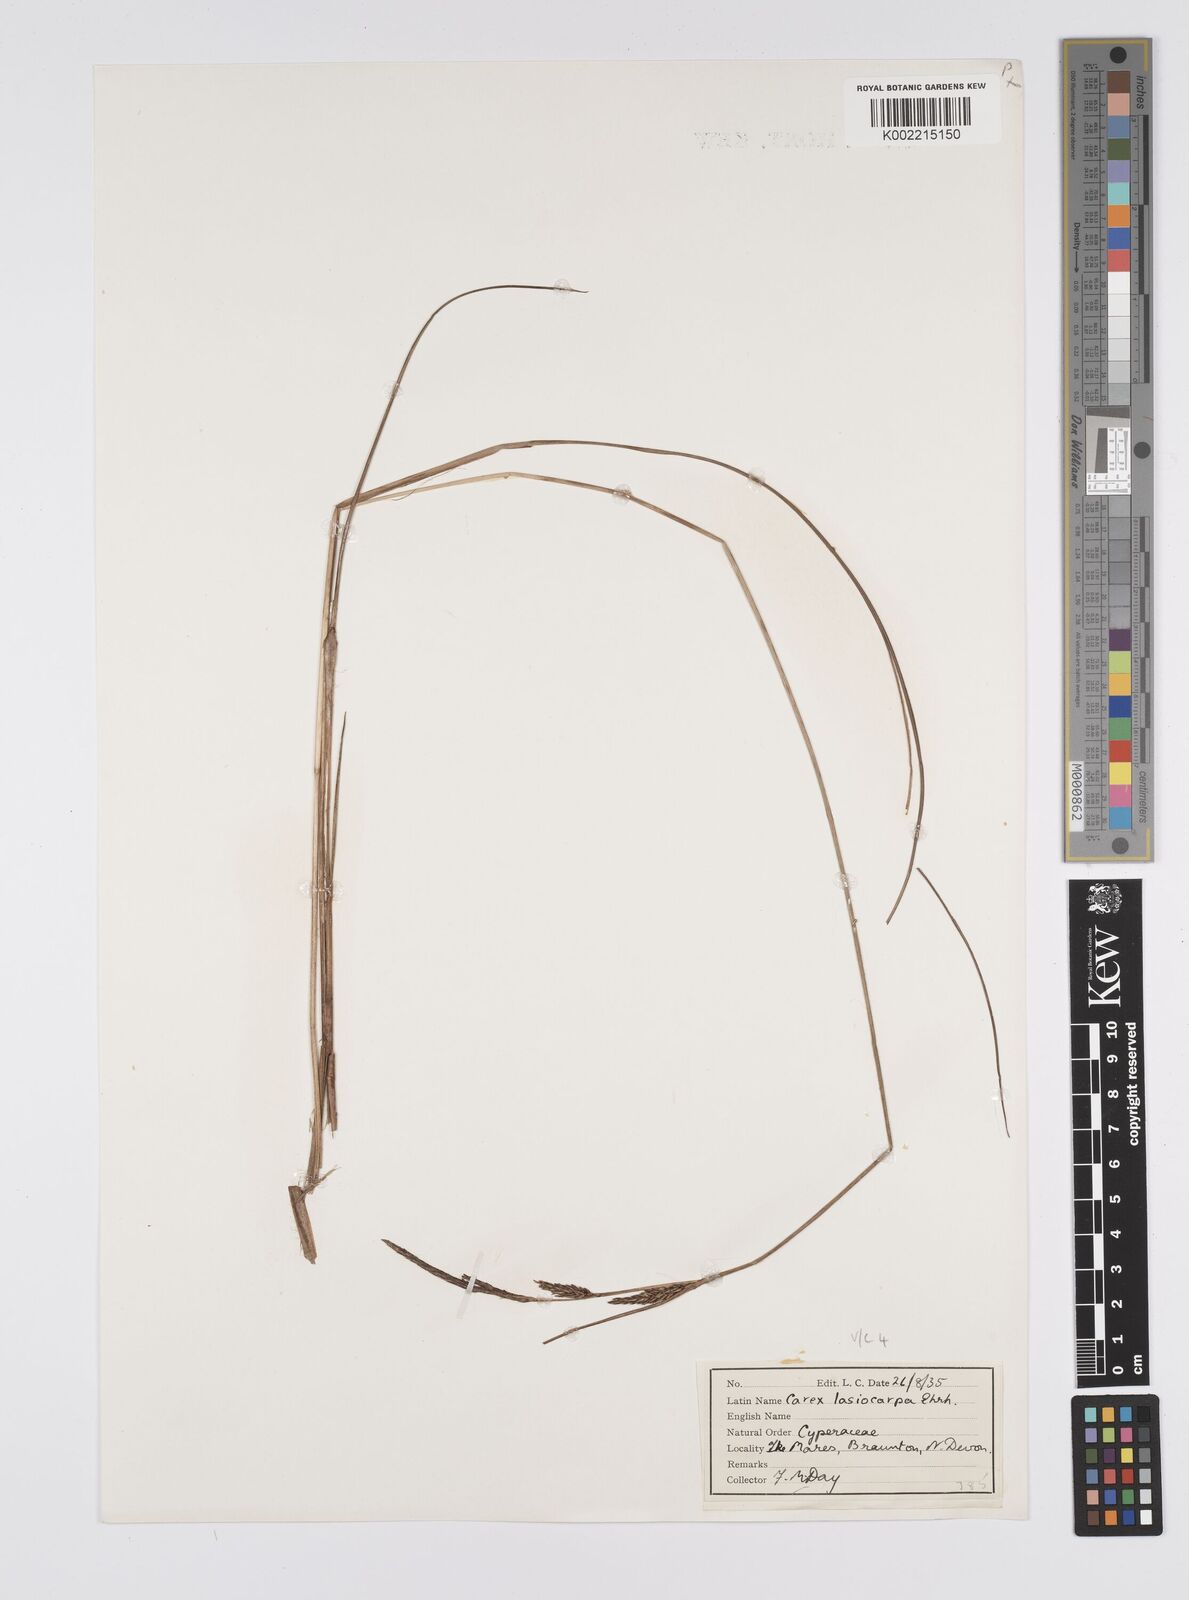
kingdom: Plantae
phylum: Tracheophyta
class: Liliopsida
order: Poales
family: Cyperaceae
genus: Carex
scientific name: Carex lasiocarpa
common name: Slender sedge
